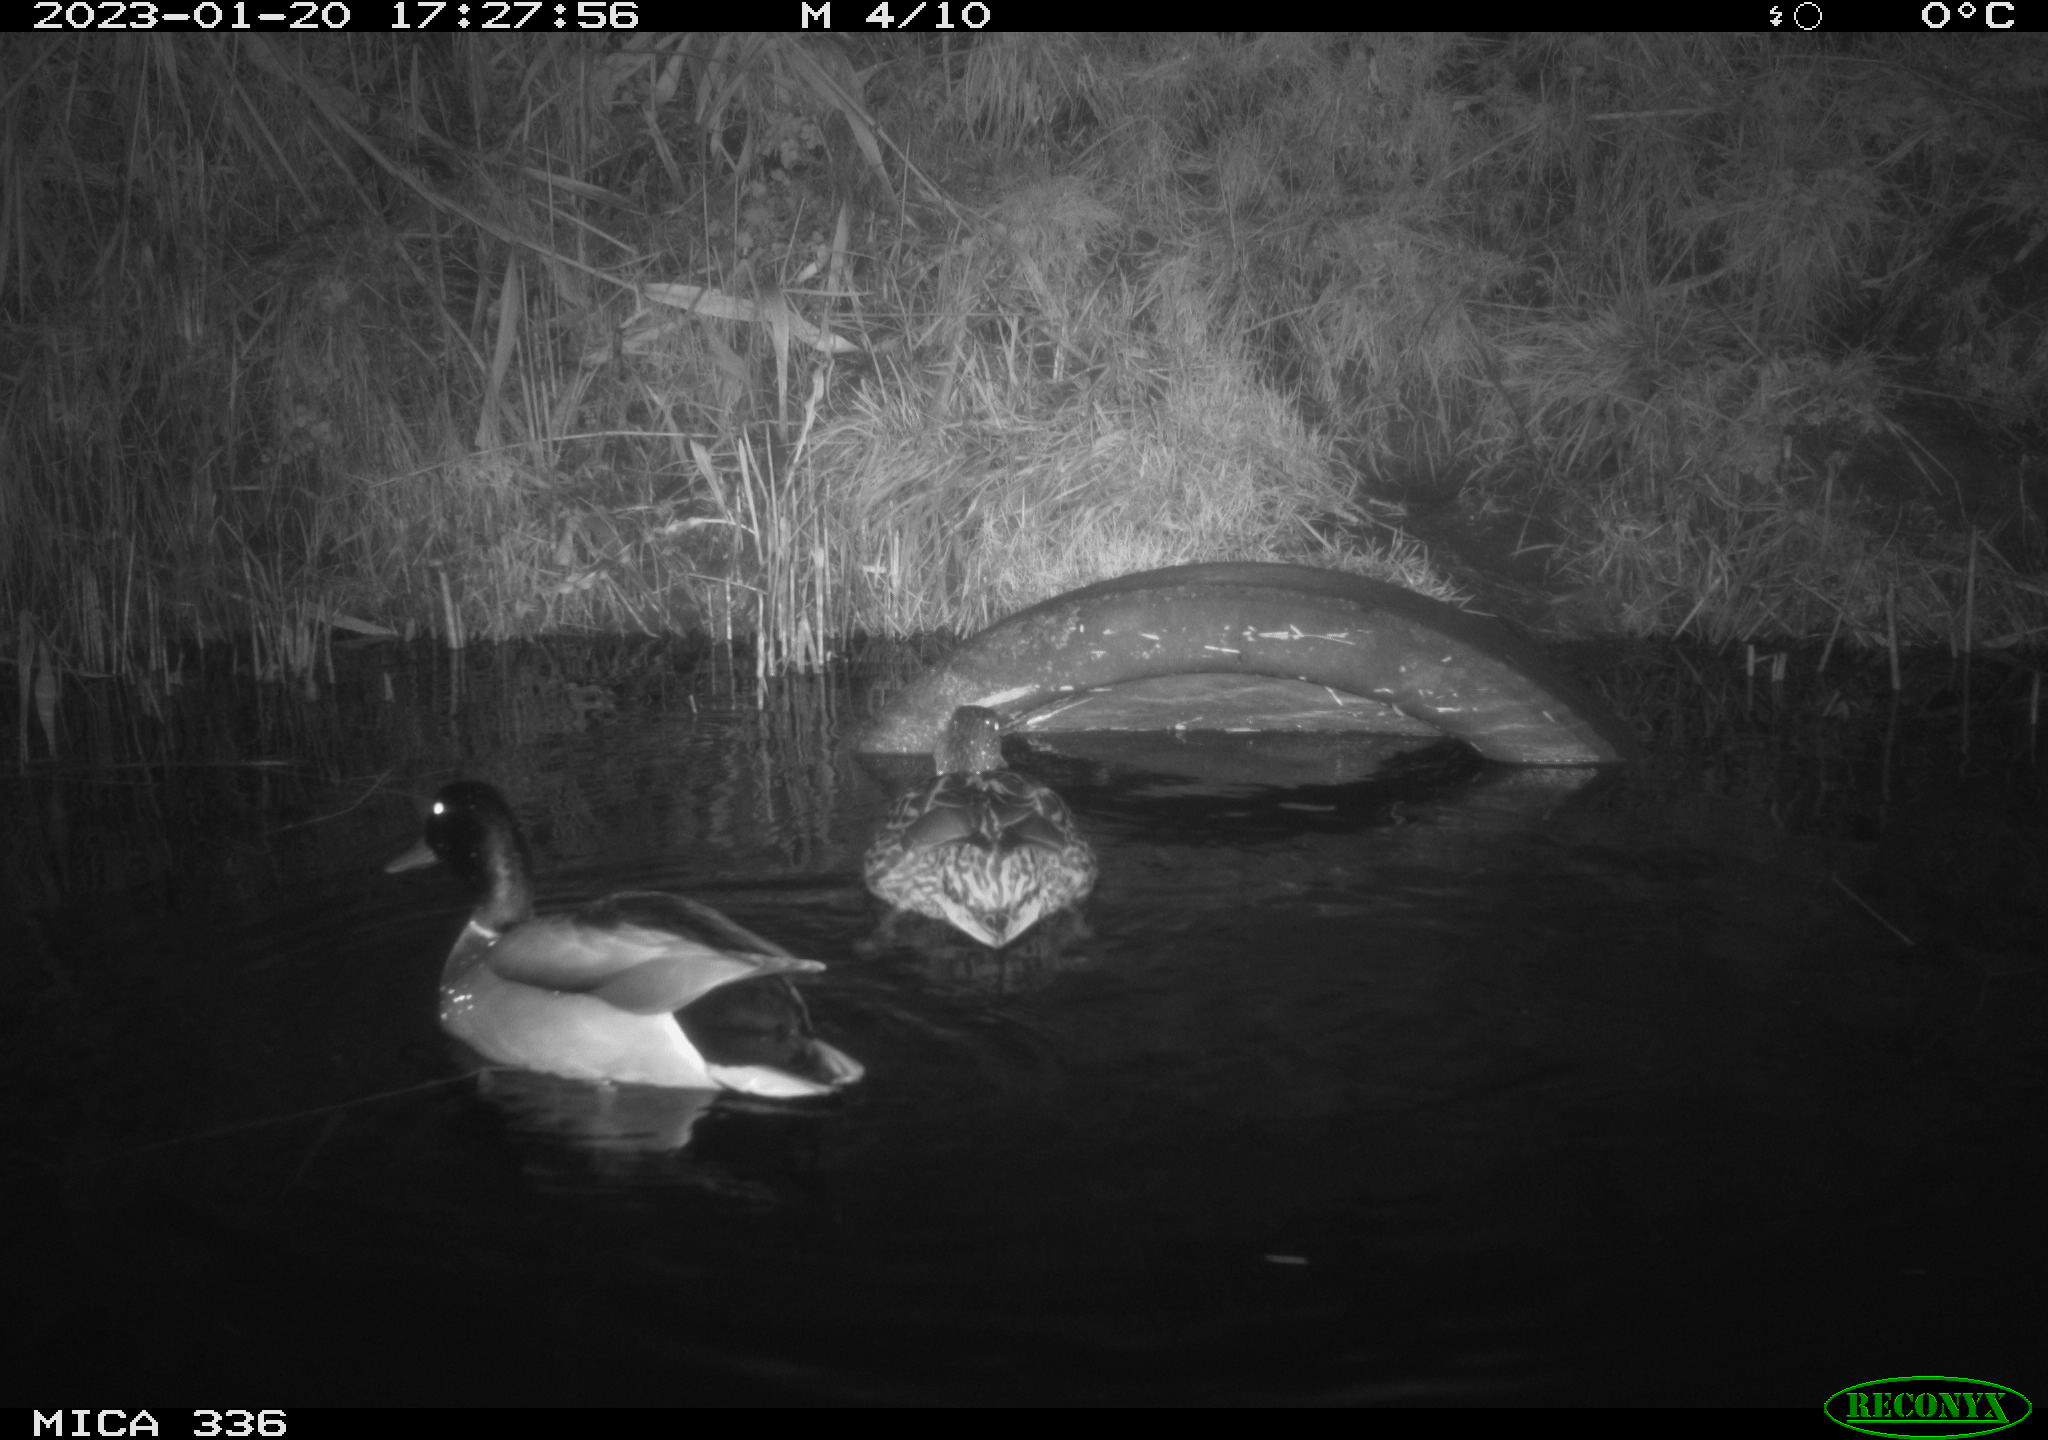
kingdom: Animalia
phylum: Chordata
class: Aves
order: Anseriformes
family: Anatidae
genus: Anas
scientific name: Anas
